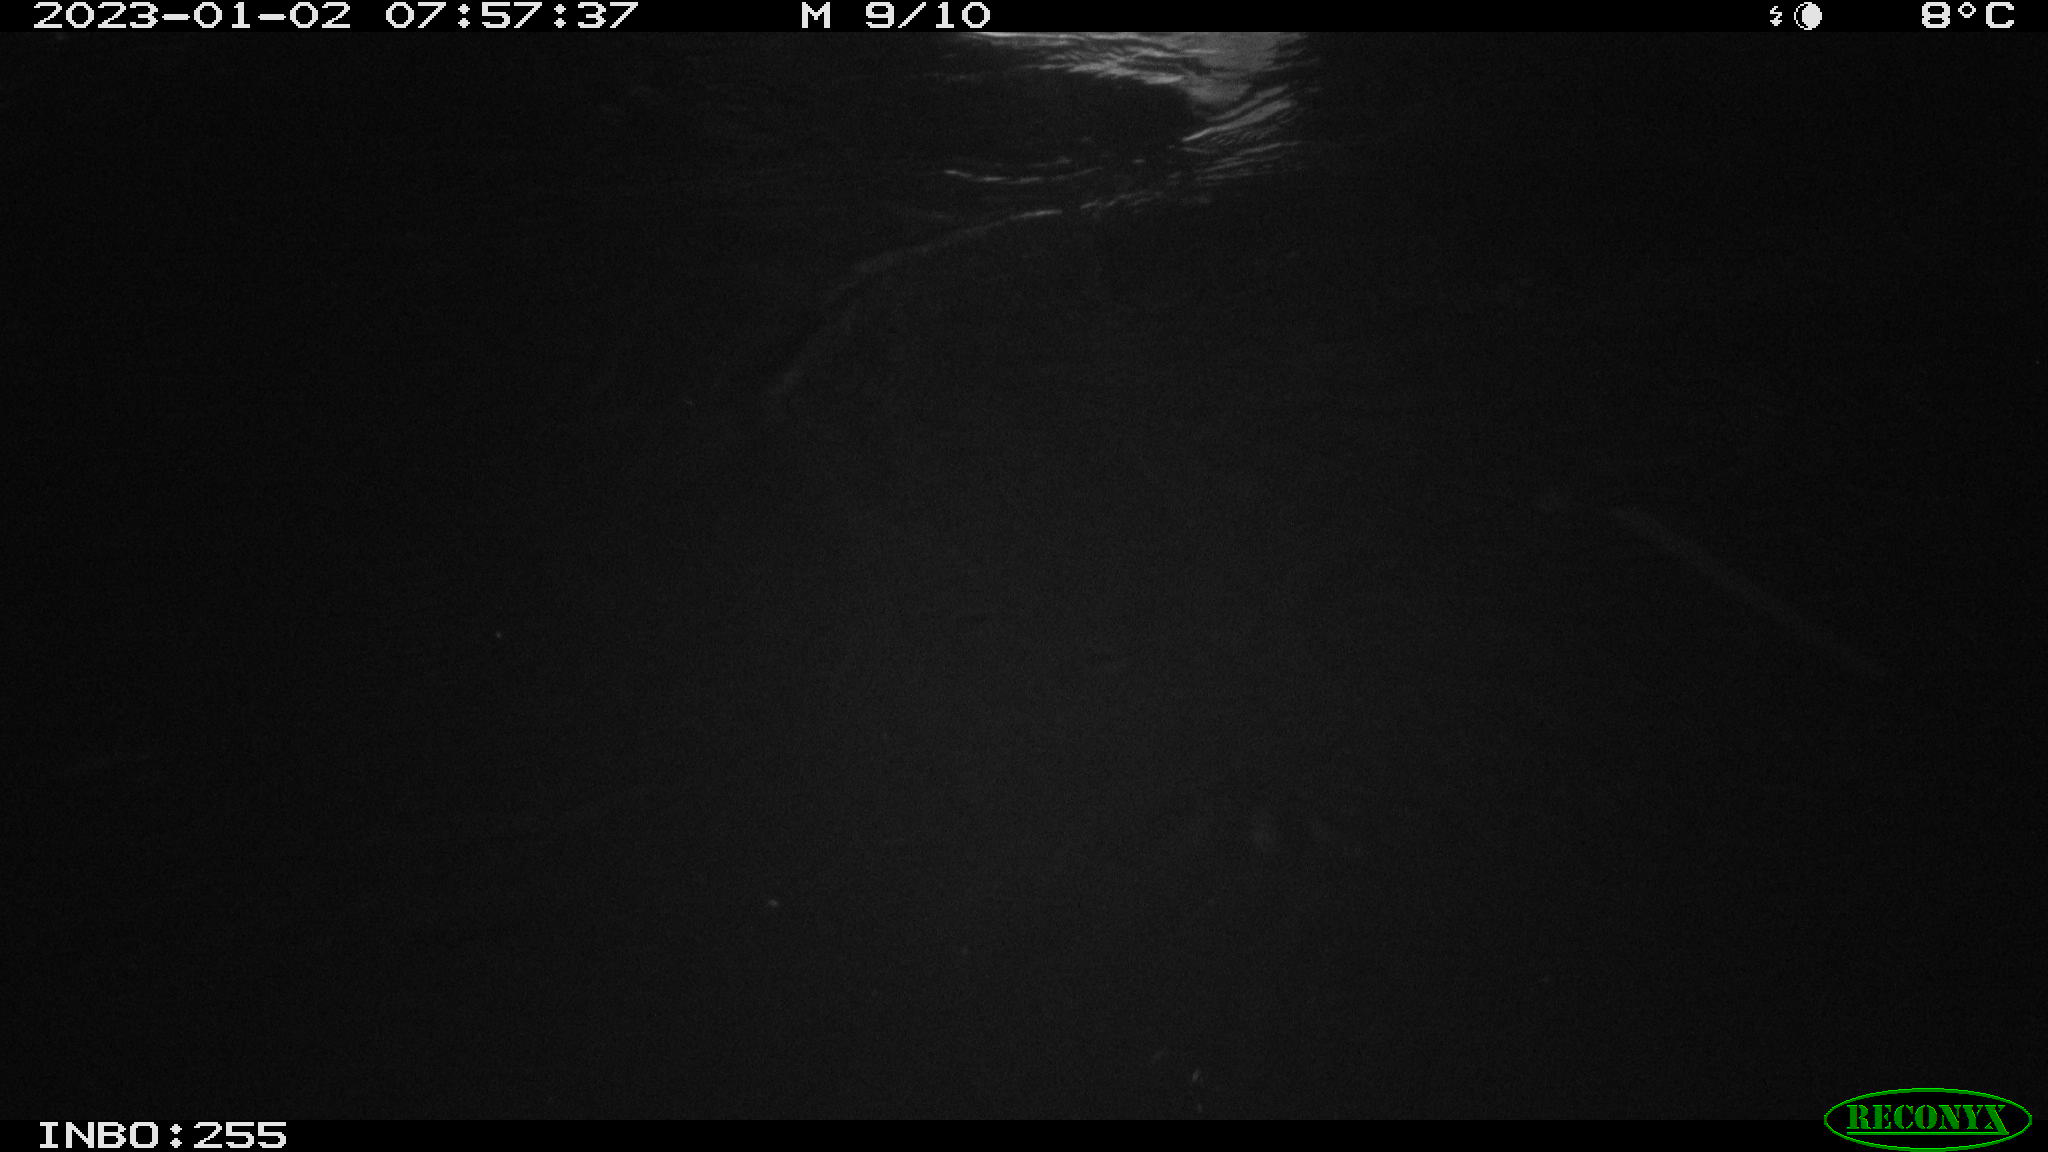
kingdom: Animalia
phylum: Chordata
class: Aves
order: Anseriformes
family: Anatidae
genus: Anas
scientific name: Anas
